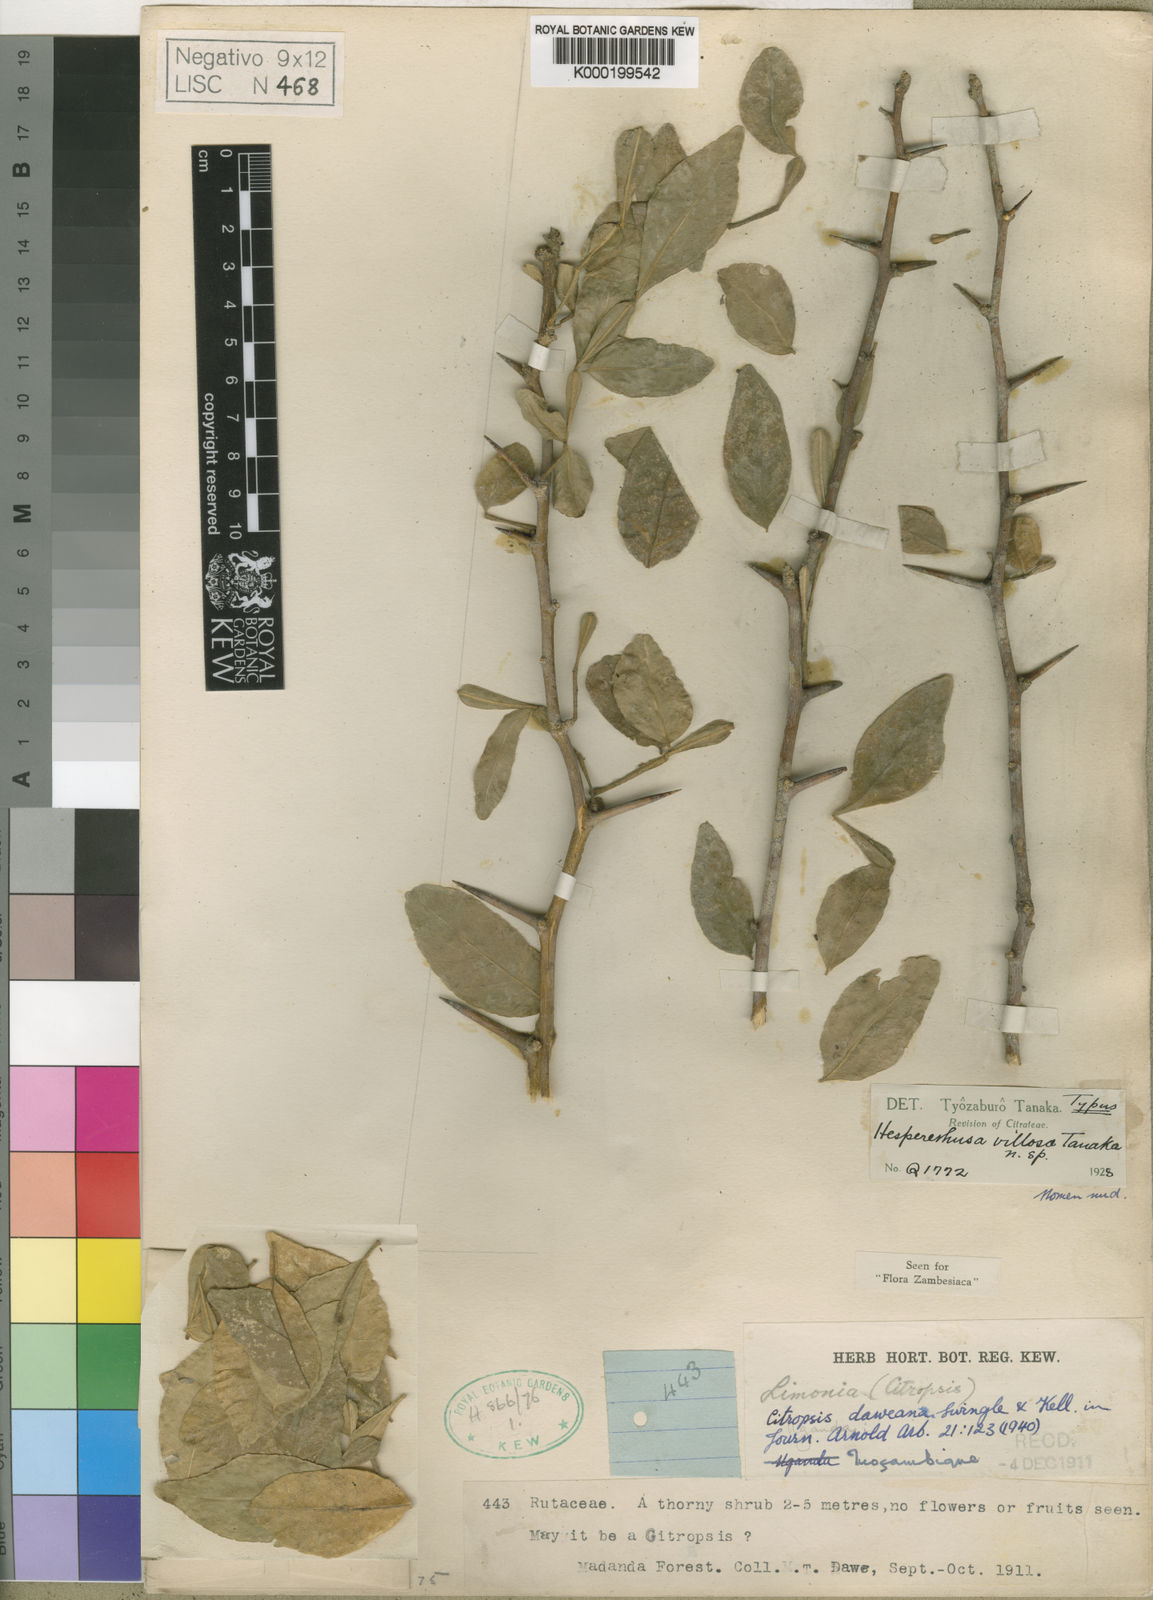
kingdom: Plantae
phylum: Tracheophyta
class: Magnoliopsida
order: Sapindales
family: Rutaceae
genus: Citropsis
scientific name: Citropsis daweana
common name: Mozambique-cherry-orange
